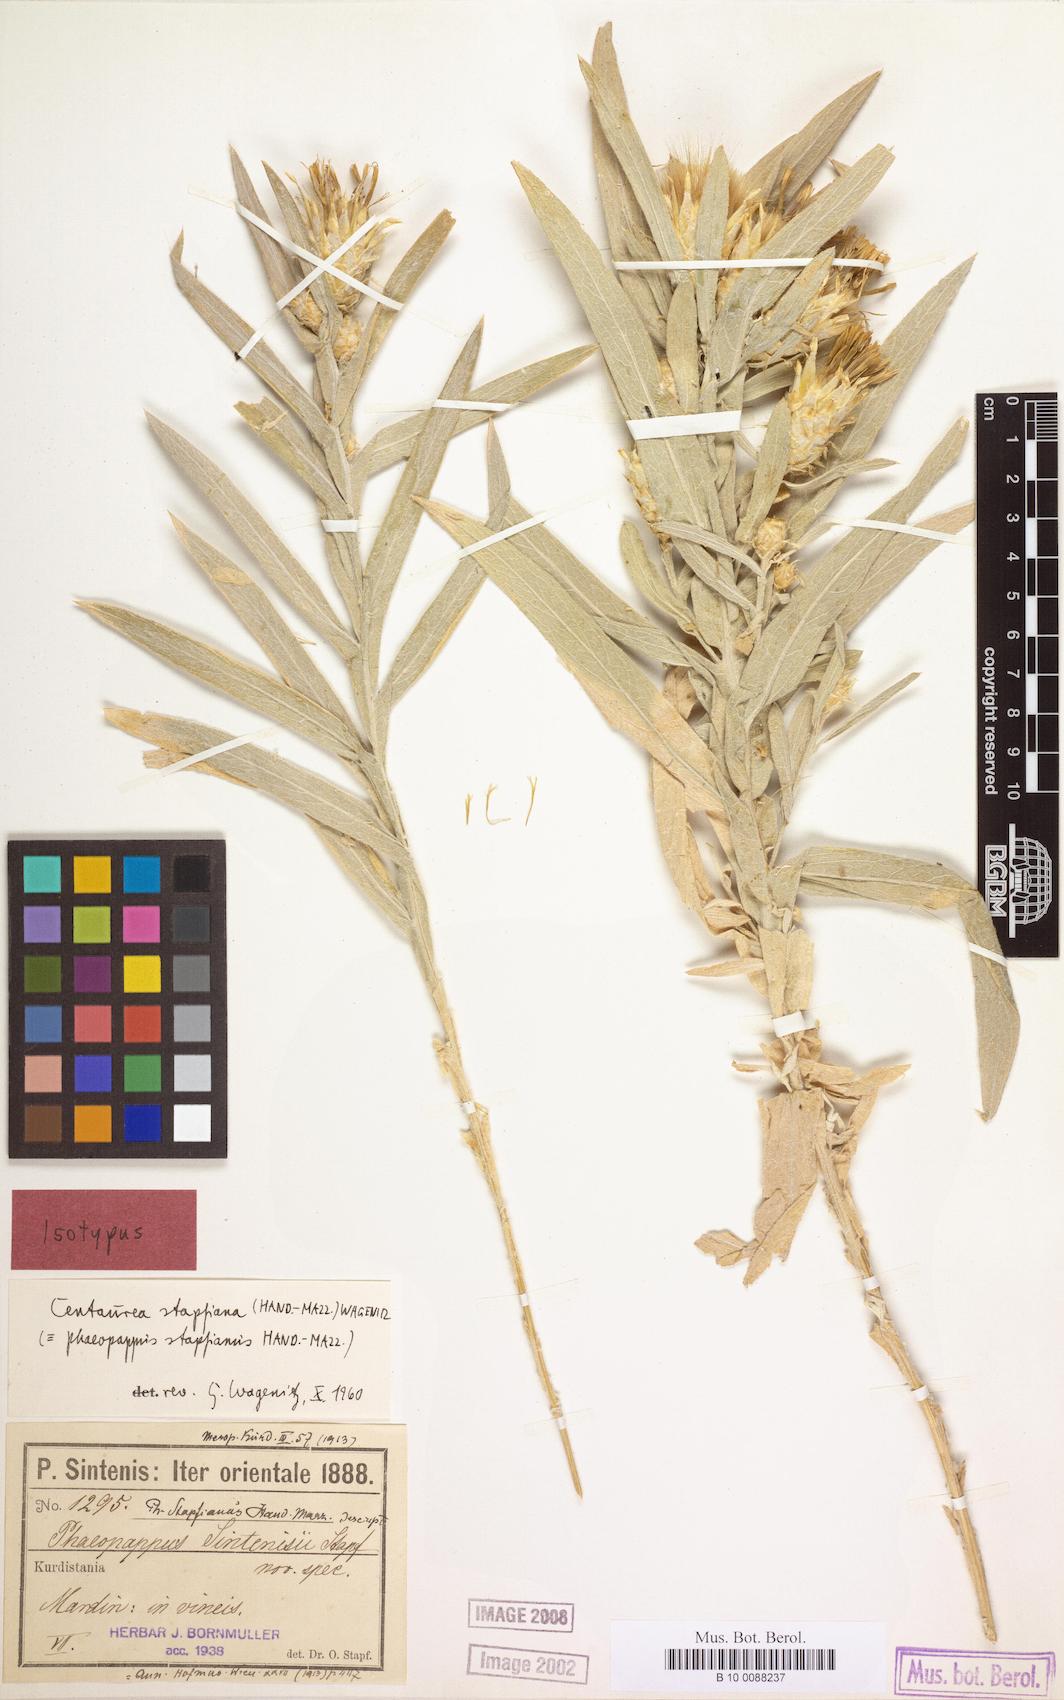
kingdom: Plantae
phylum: Tracheophyta
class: Magnoliopsida
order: Asterales
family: Asteraceae
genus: Centaurea
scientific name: Centaurea stapfiana
